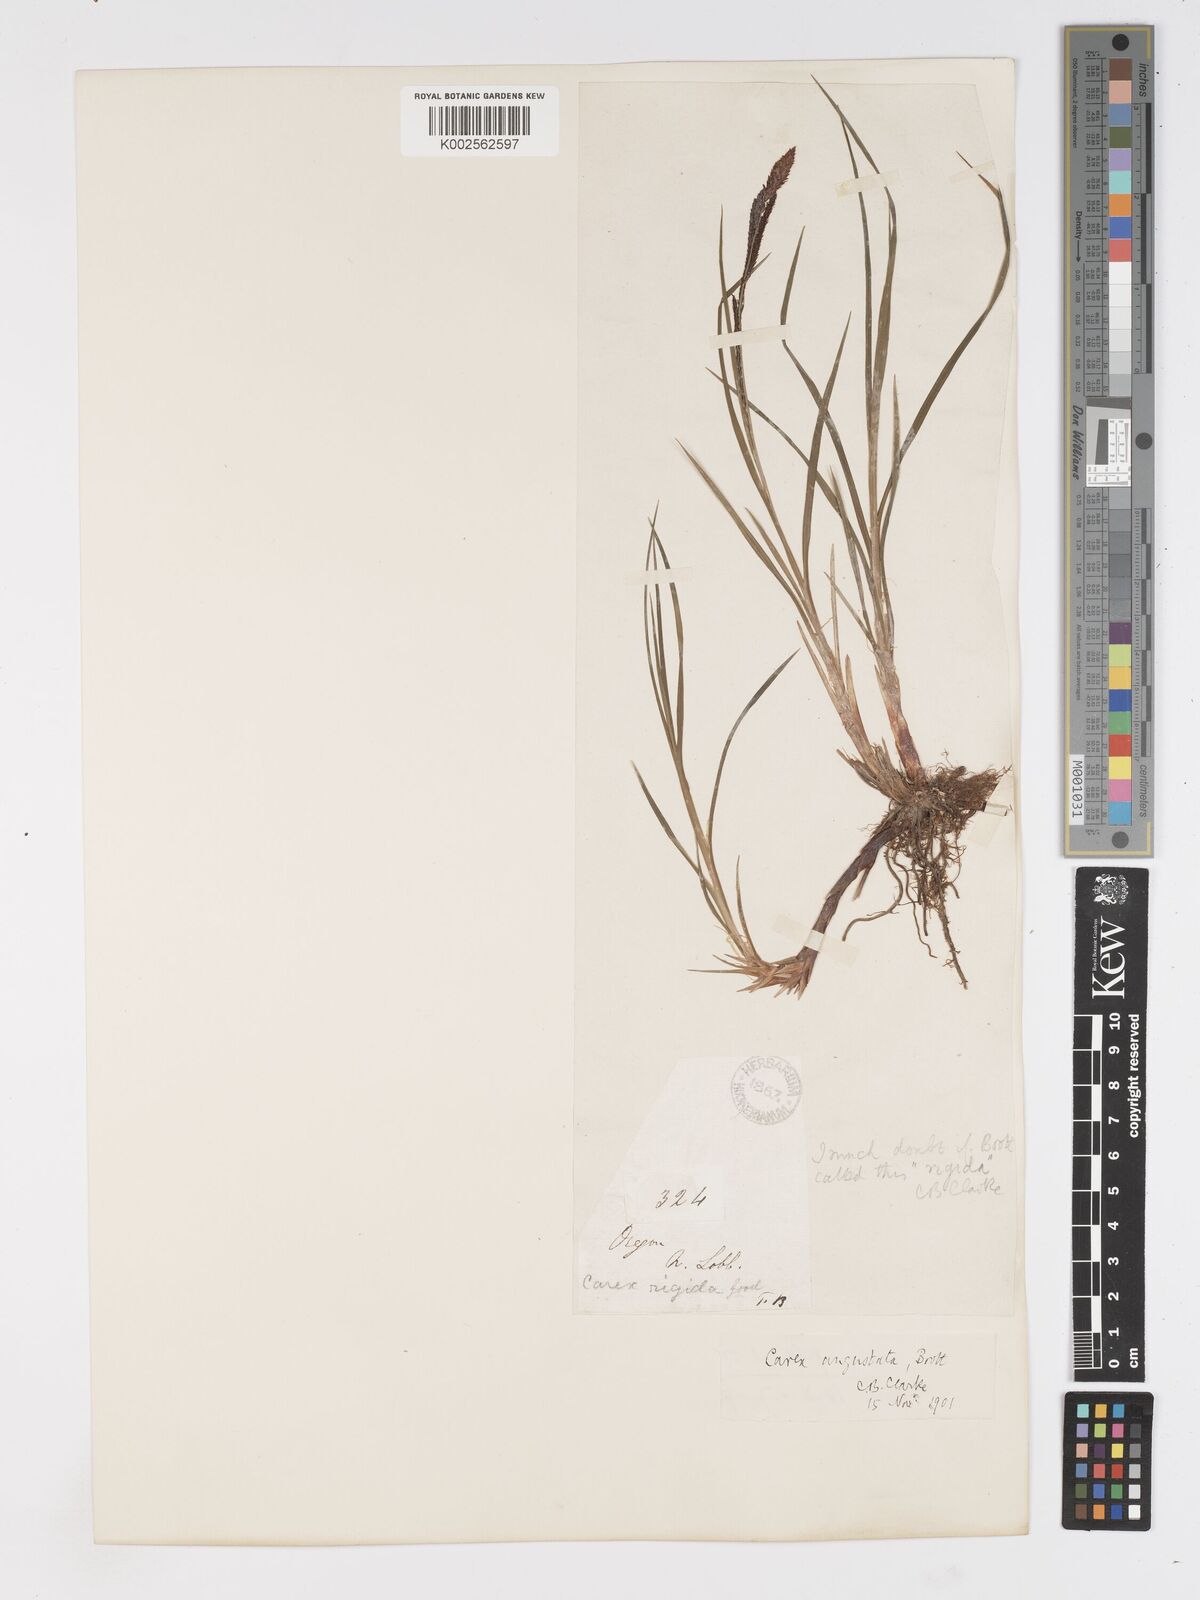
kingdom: Plantae
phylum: Tracheophyta
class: Liliopsida
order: Poales
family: Cyperaceae
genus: Carex
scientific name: Carex stricta
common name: Hummock sedge
